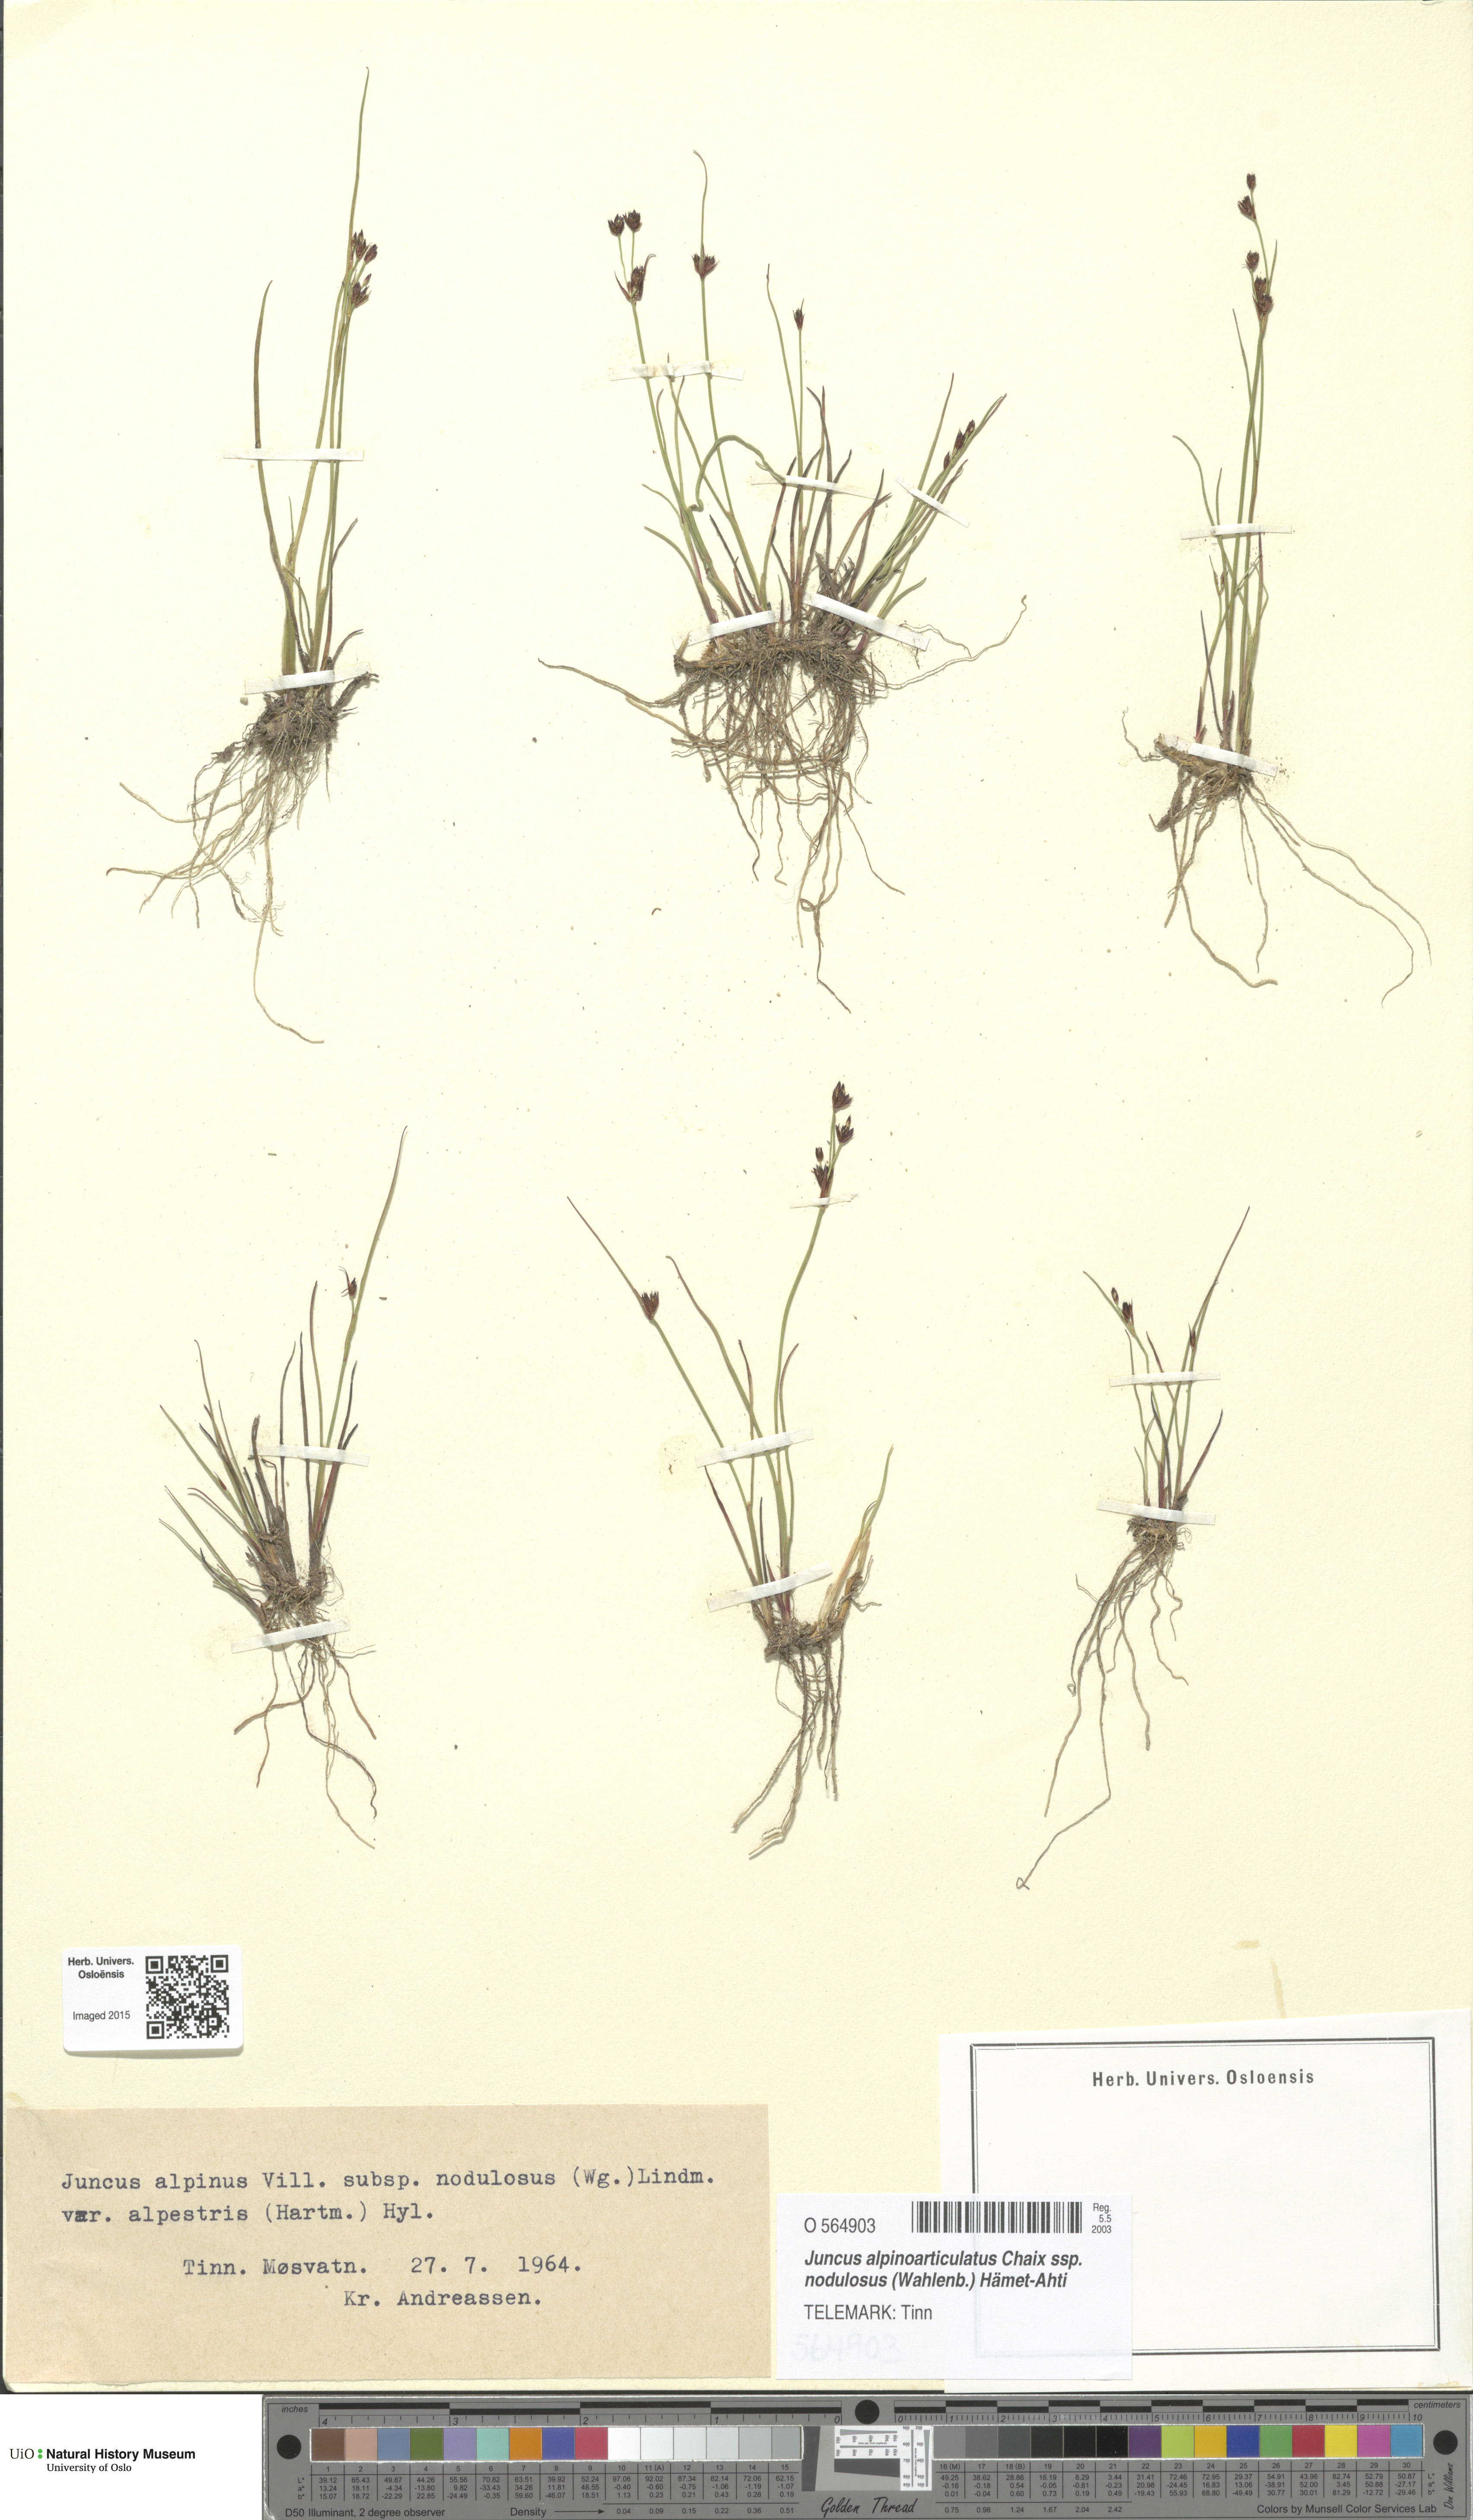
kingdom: Plantae
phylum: Tracheophyta
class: Liliopsida
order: Poales
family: Juncaceae
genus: Juncus
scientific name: Juncus alpinoarticulatus
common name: Alpine rush
